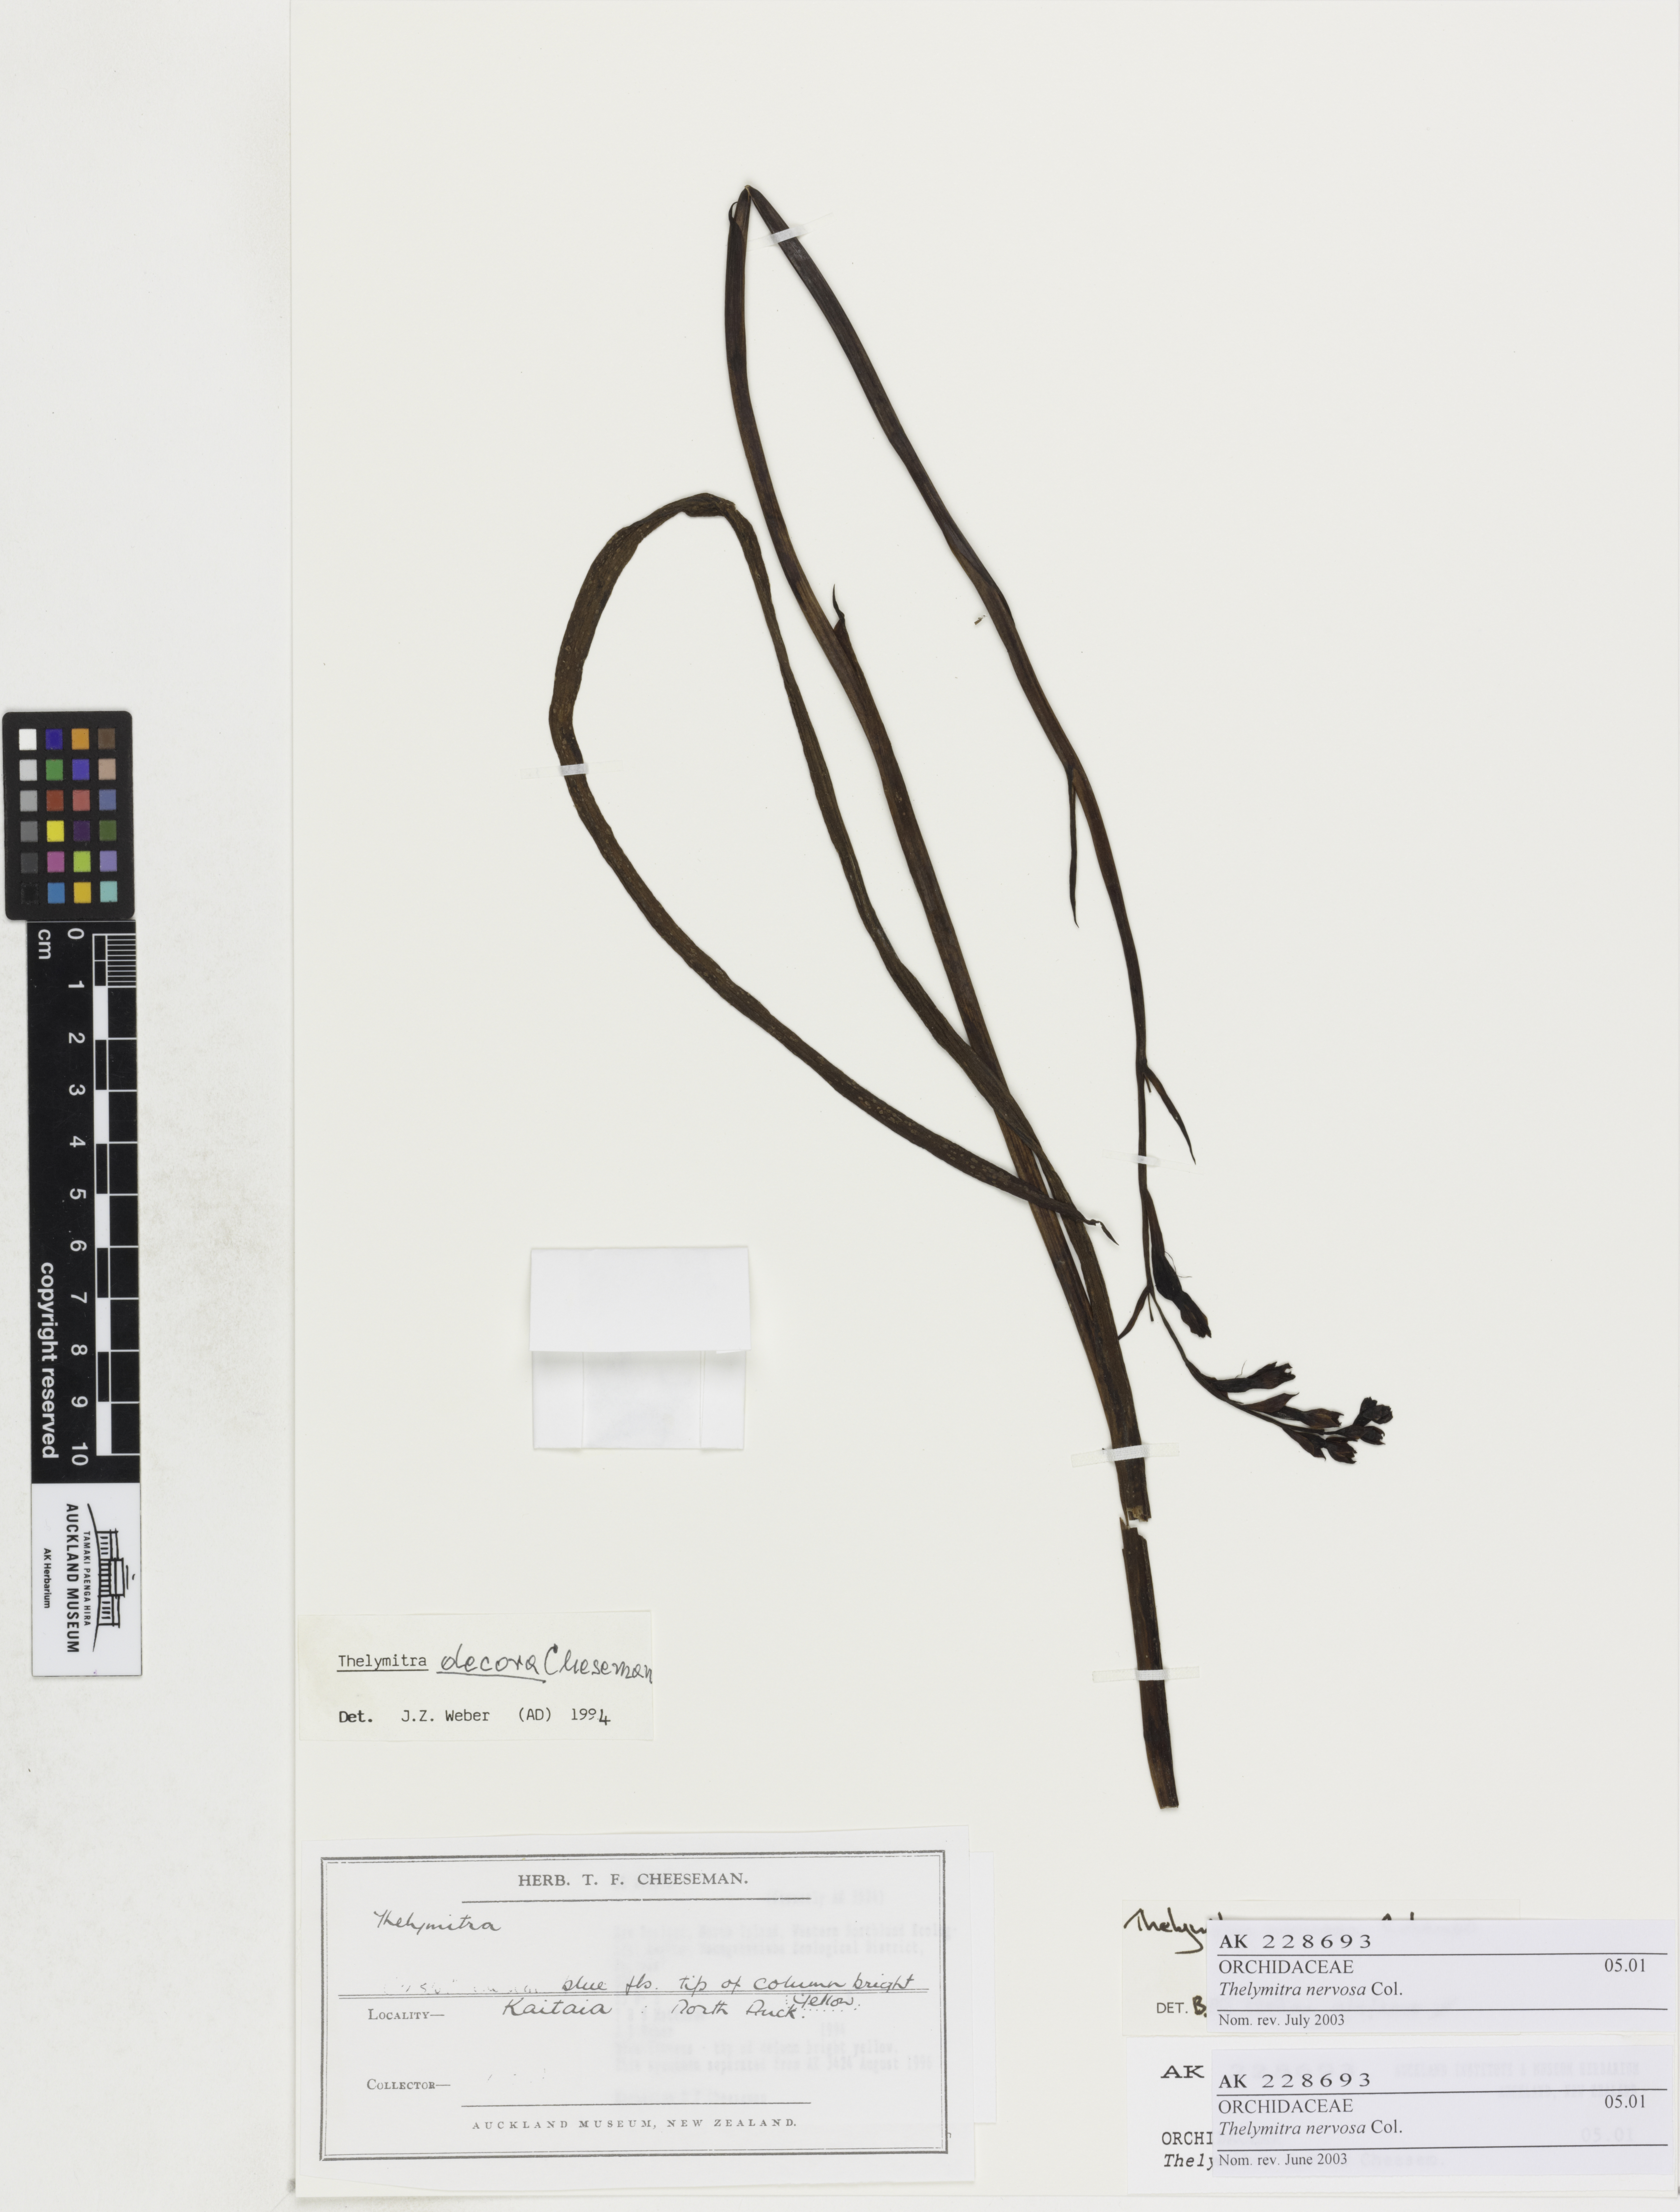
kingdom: Plantae
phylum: Tracheophyta
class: Liliopsida
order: Asparagales
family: Orchidaceae
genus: Thelymitra
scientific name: Thelymitra nervosa
